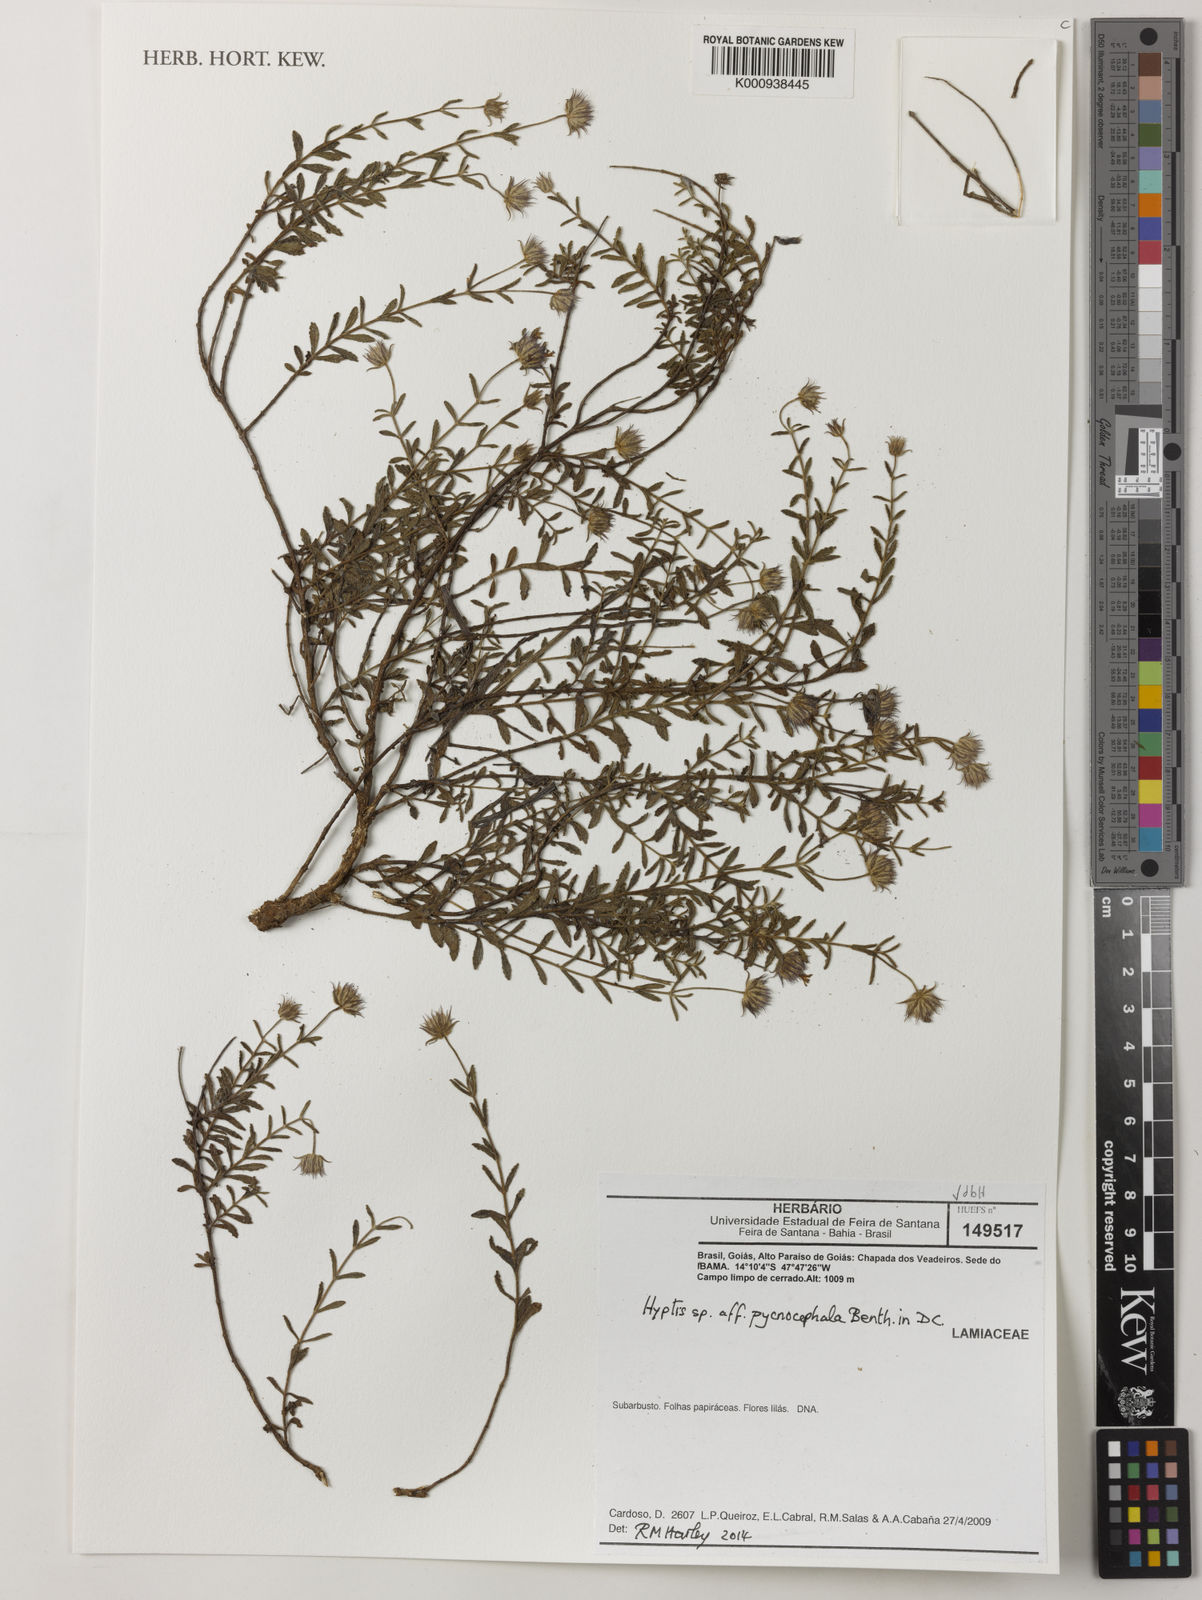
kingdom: Plantae
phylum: Tracheophyta
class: Magnoliopsida
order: Lamiales
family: Lamiaceae
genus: Hyptis
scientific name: Hyptis
